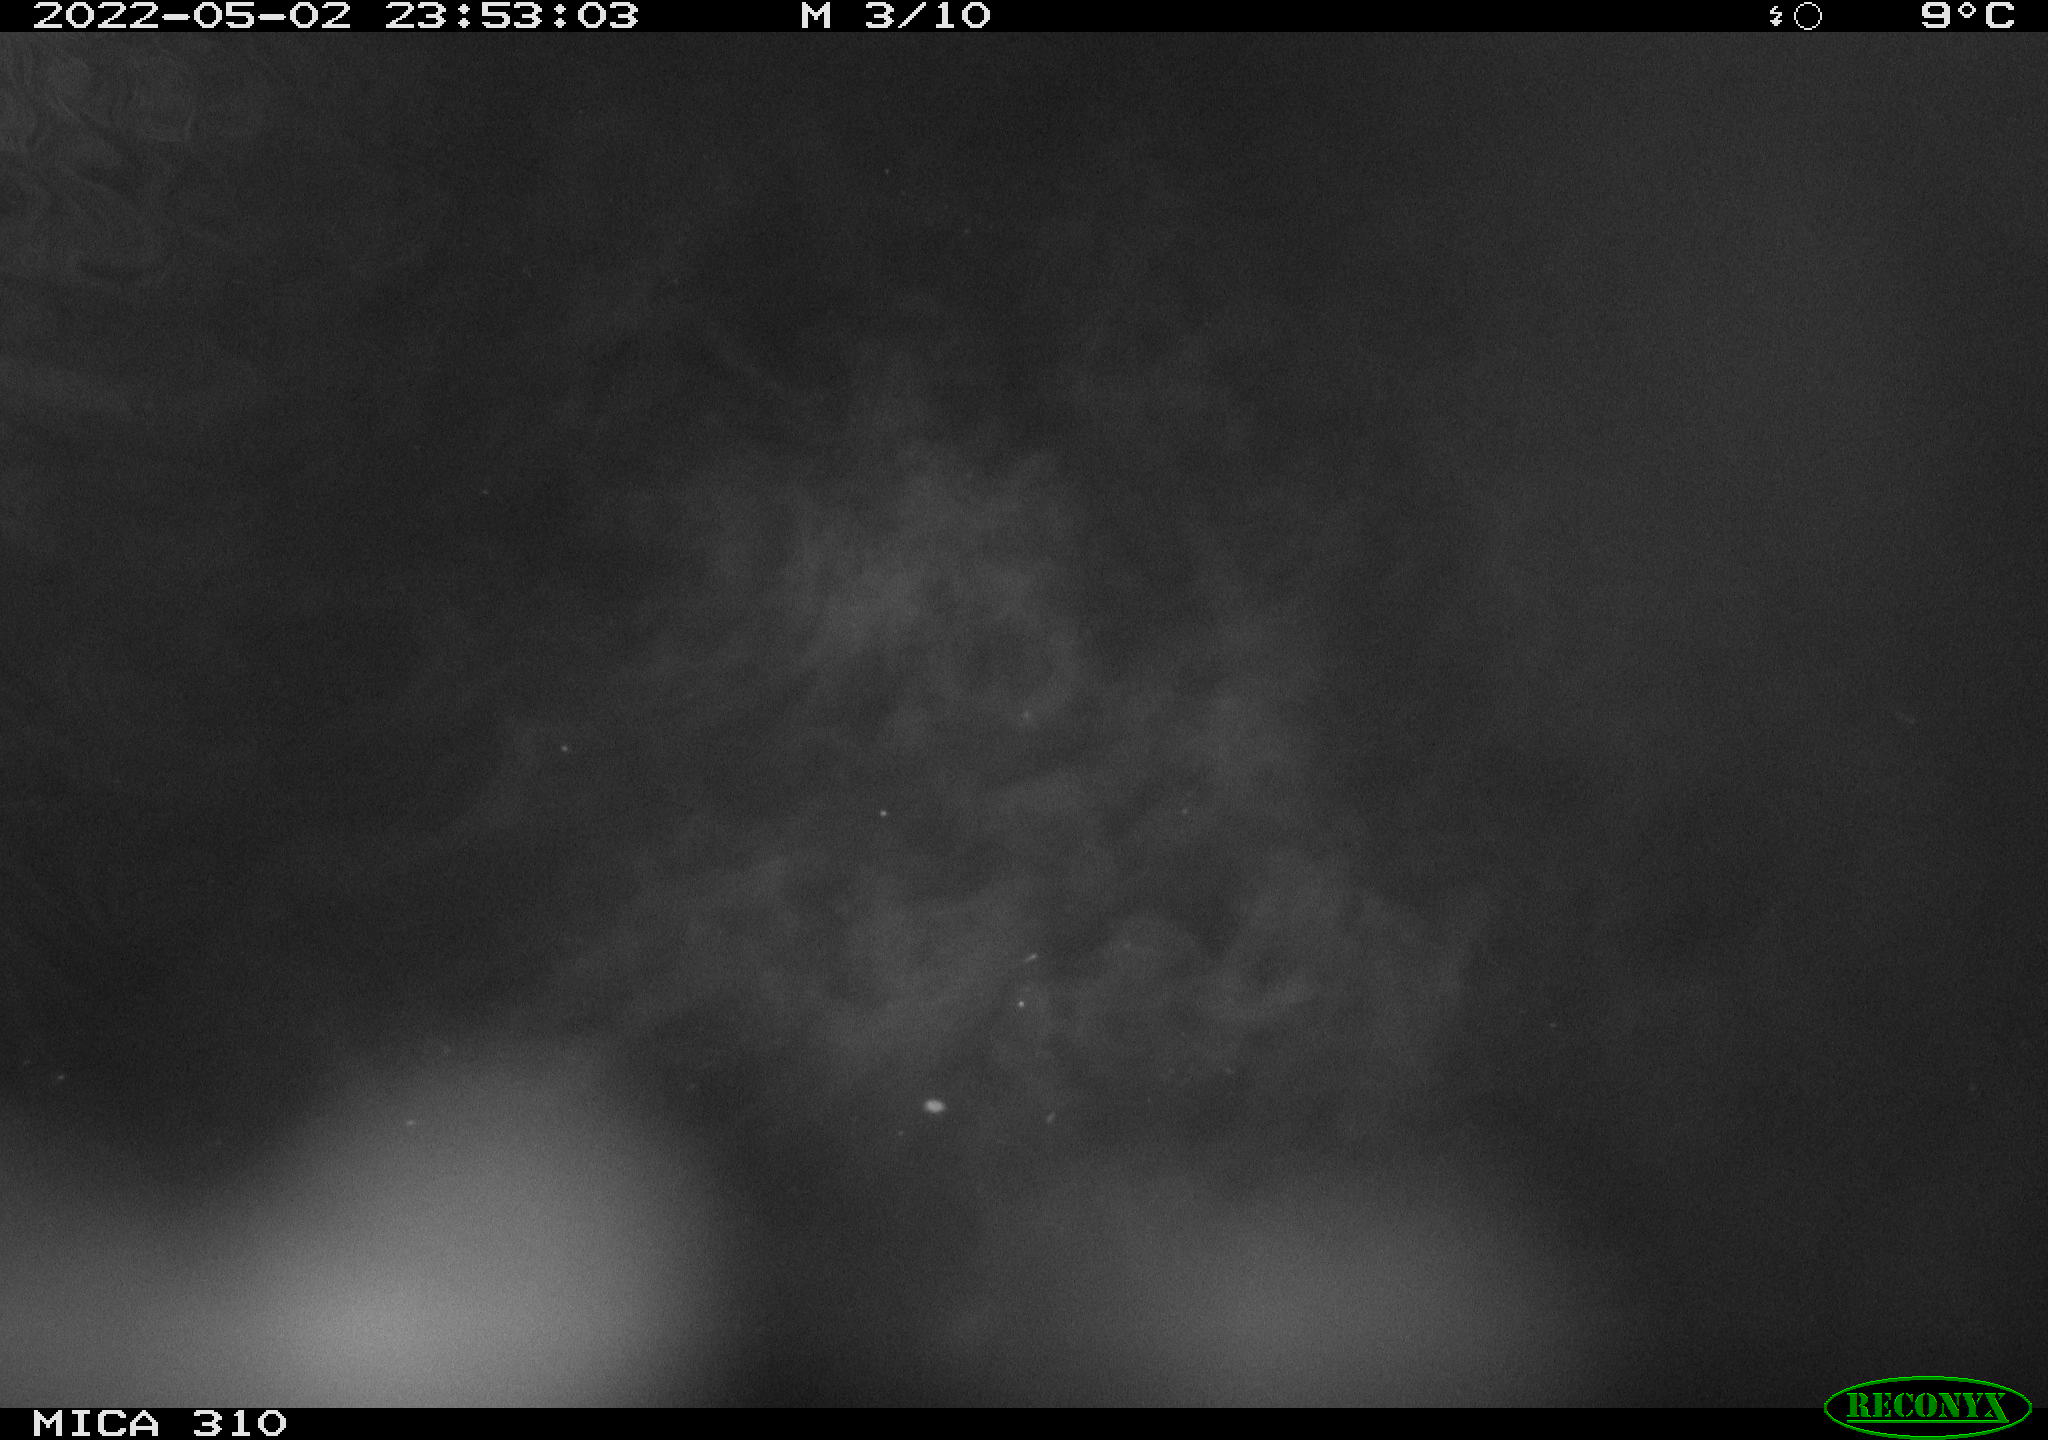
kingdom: Animalia
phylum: Chordata
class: Aves
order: Anseriformes
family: Anatidae
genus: Anas
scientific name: Anas platyrhynchos
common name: Mallard
